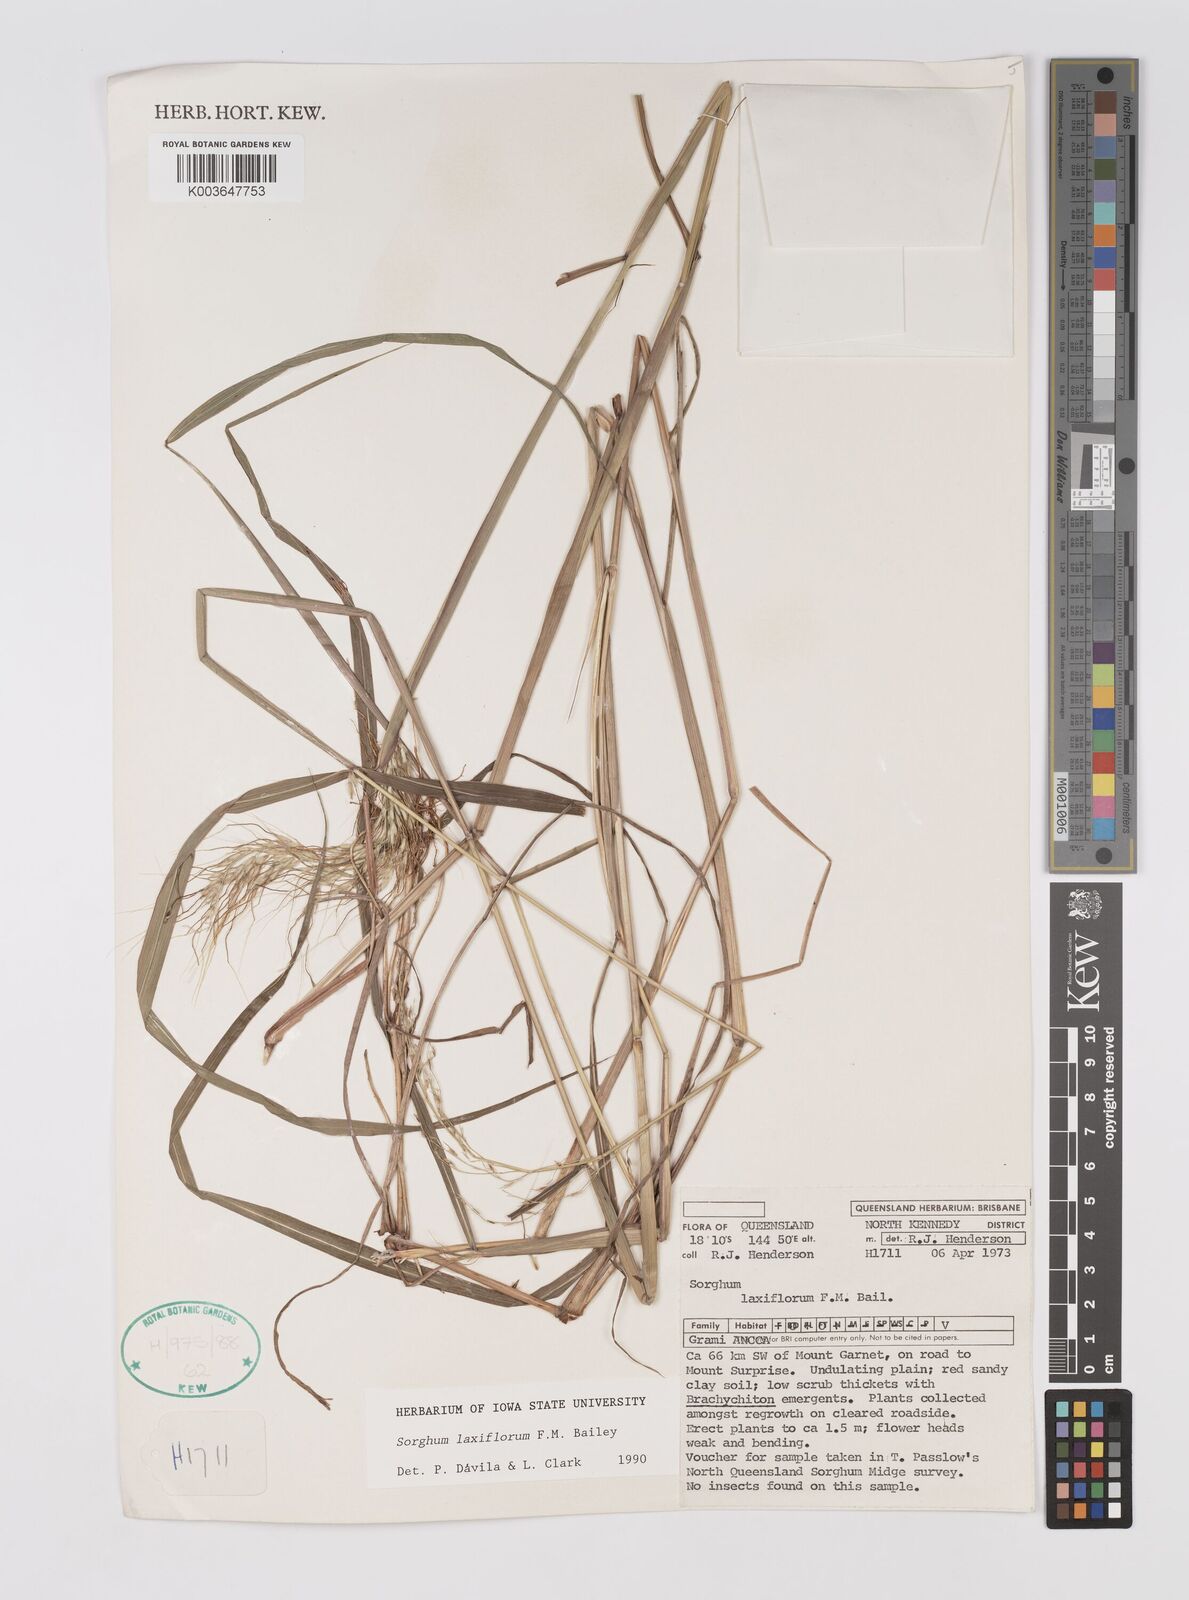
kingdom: Plantae
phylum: Tracheophyta
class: Liliopsida
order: Poales
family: Poaceae
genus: Sorghum
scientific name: Sorghum laxiflorum
